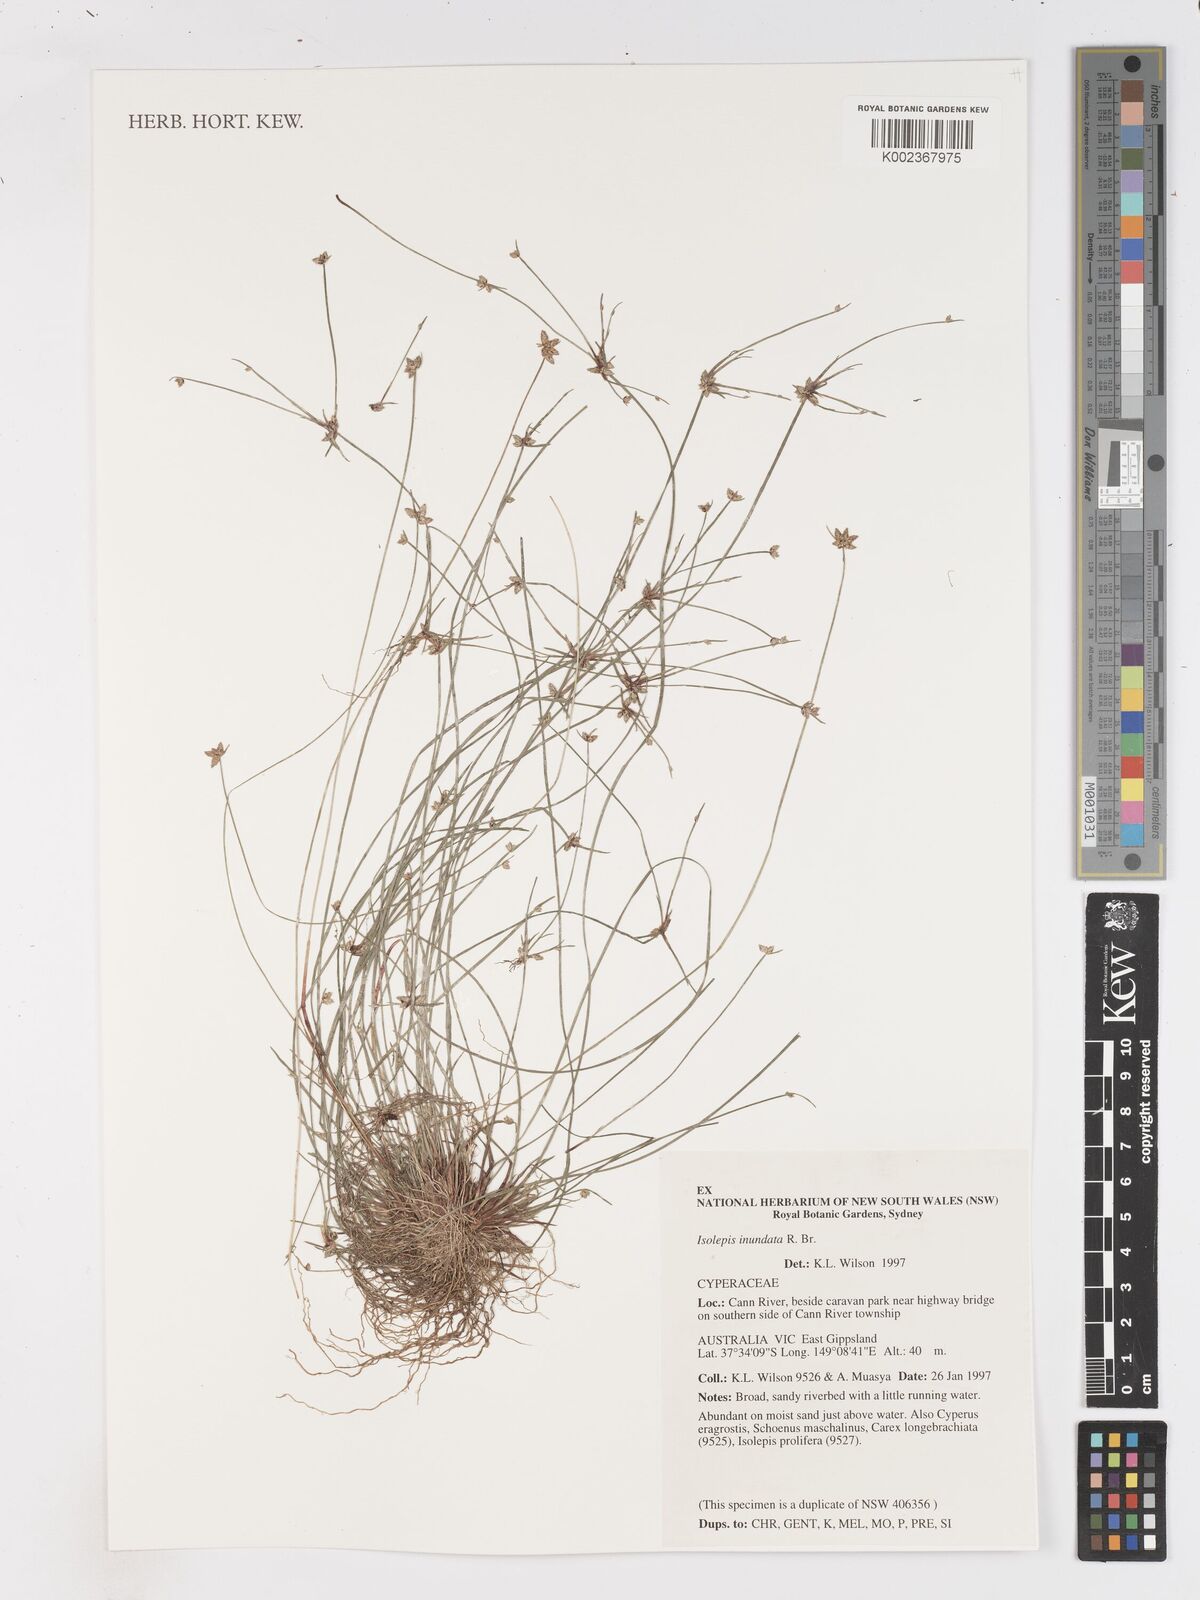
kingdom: Plantae
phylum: Tracheophyta
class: Liliopsida
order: Poales
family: Cyperaceae
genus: Isolepis
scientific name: Isolepis inundata
